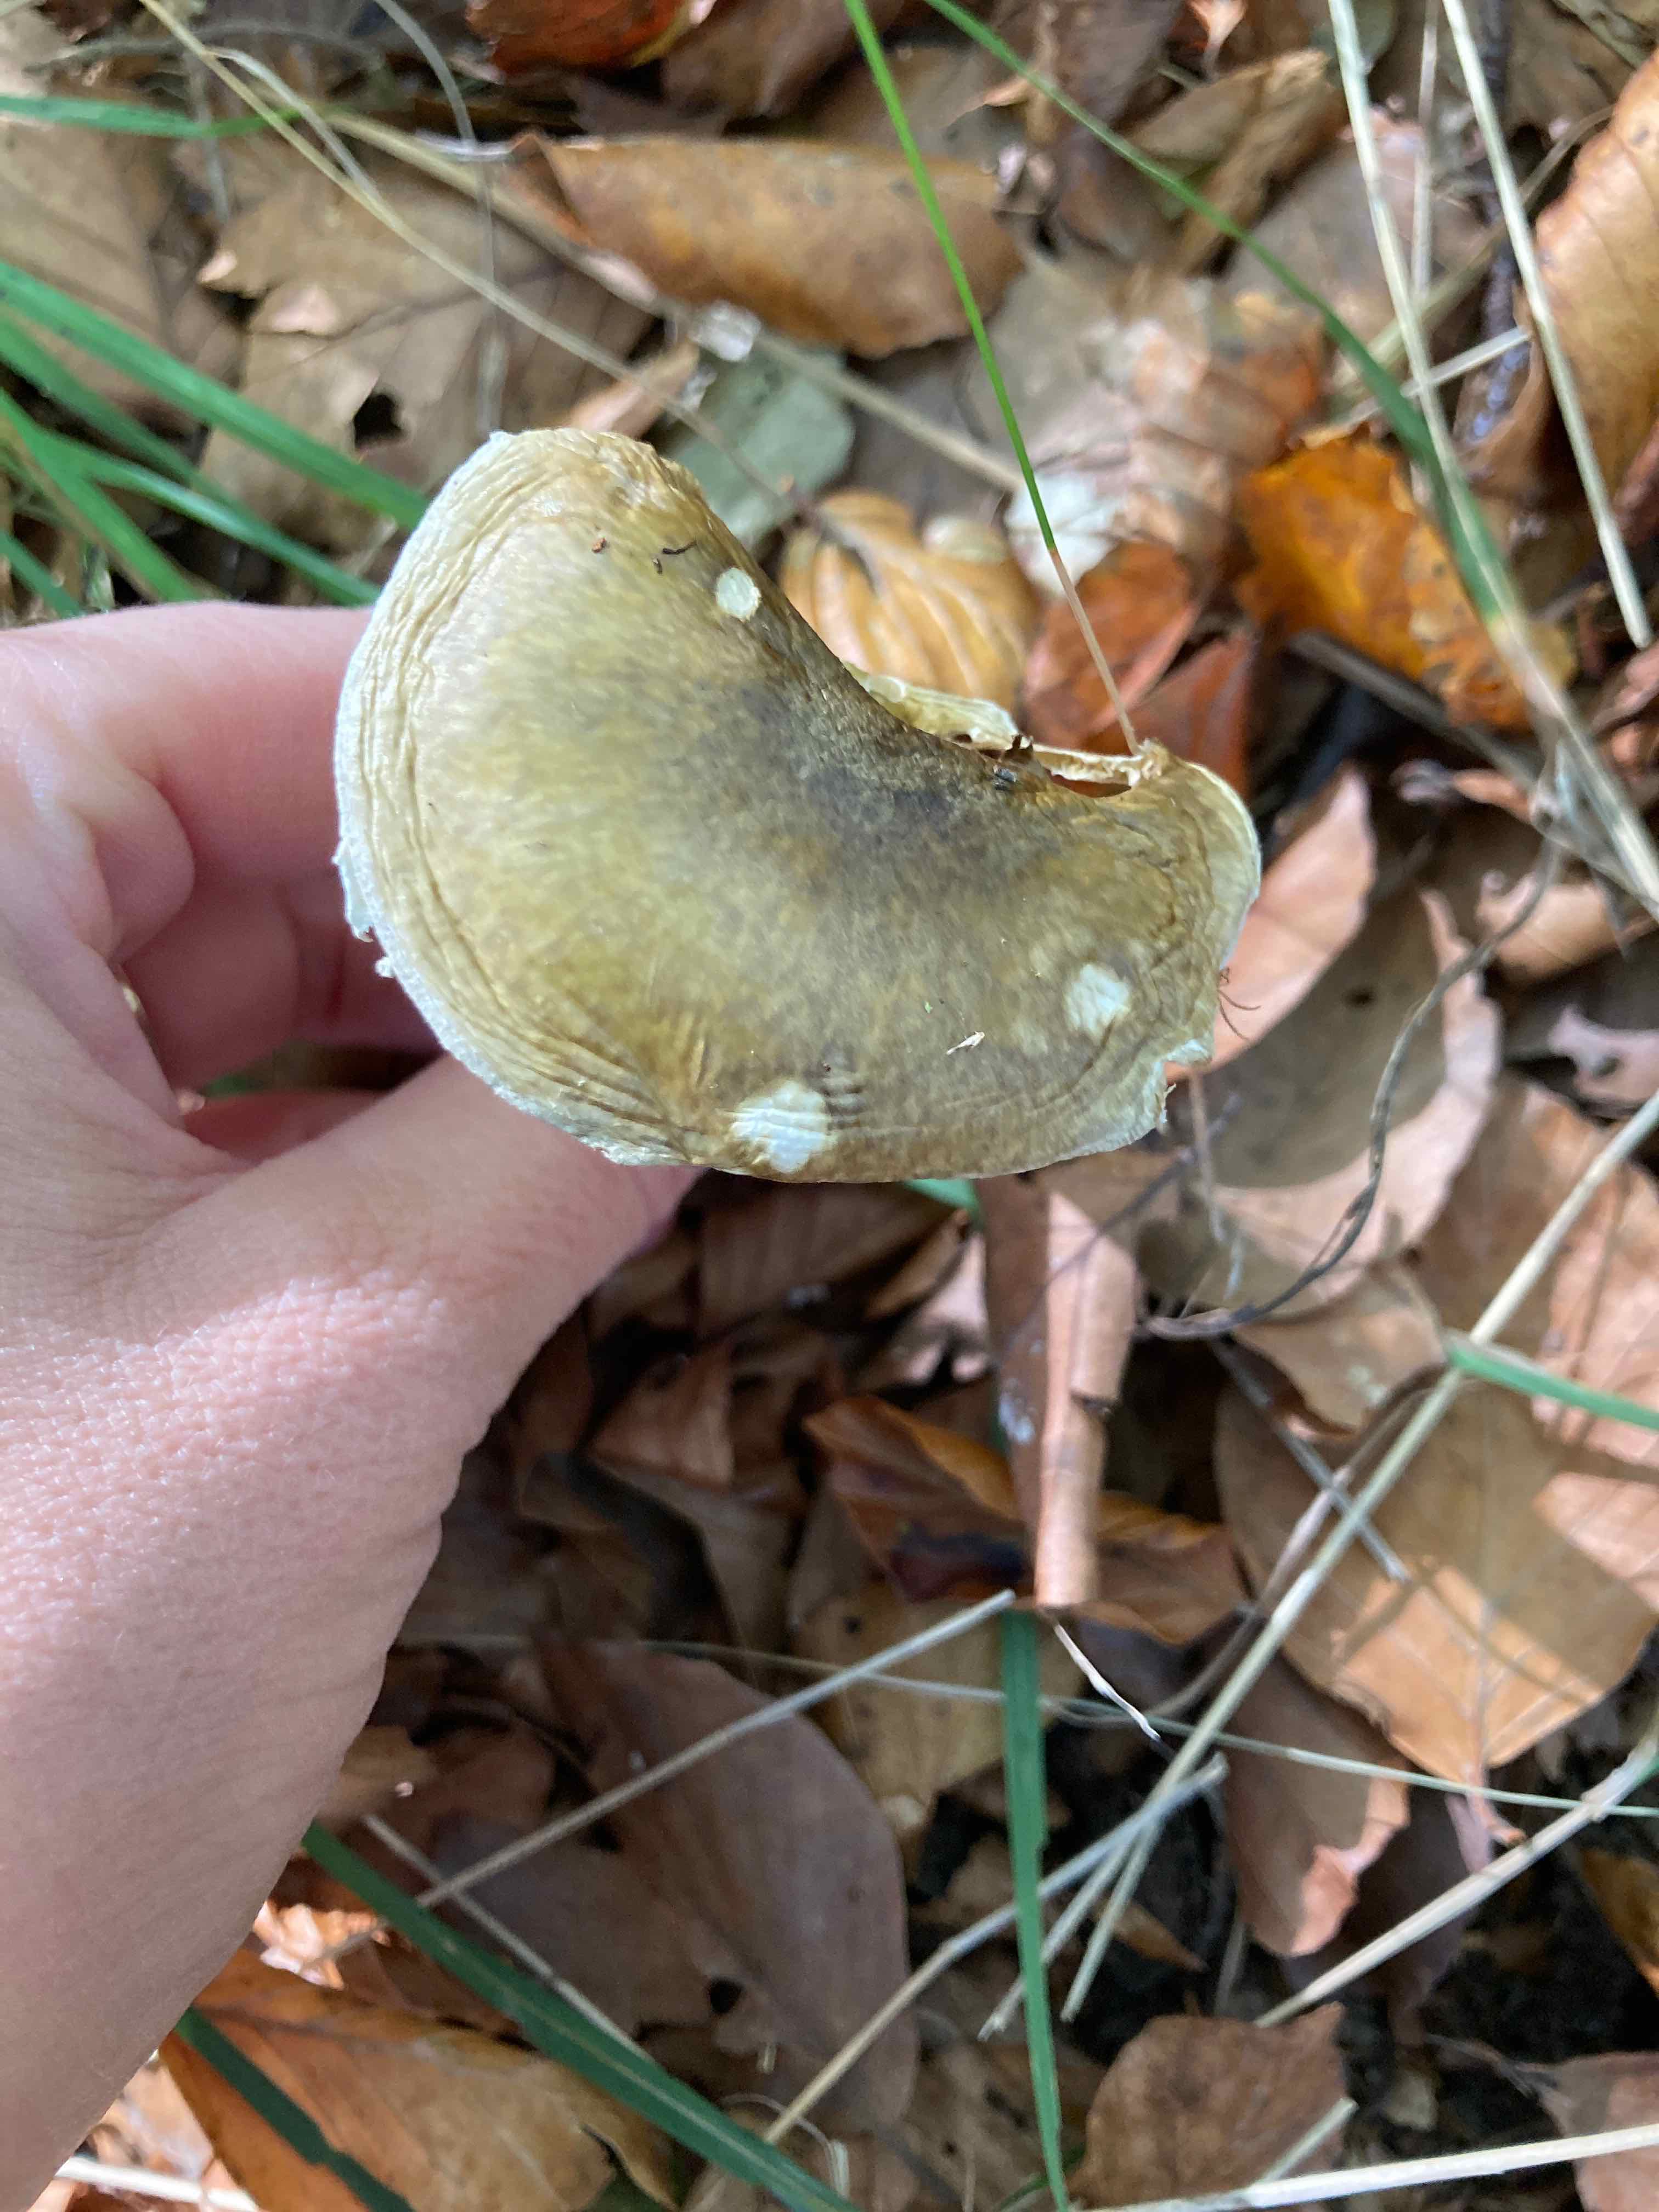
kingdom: Fungi
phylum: Basidiomycota
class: Agaricomycetes
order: Agaricales
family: Amanitaceae
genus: Amanita
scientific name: Amanita phalloides
